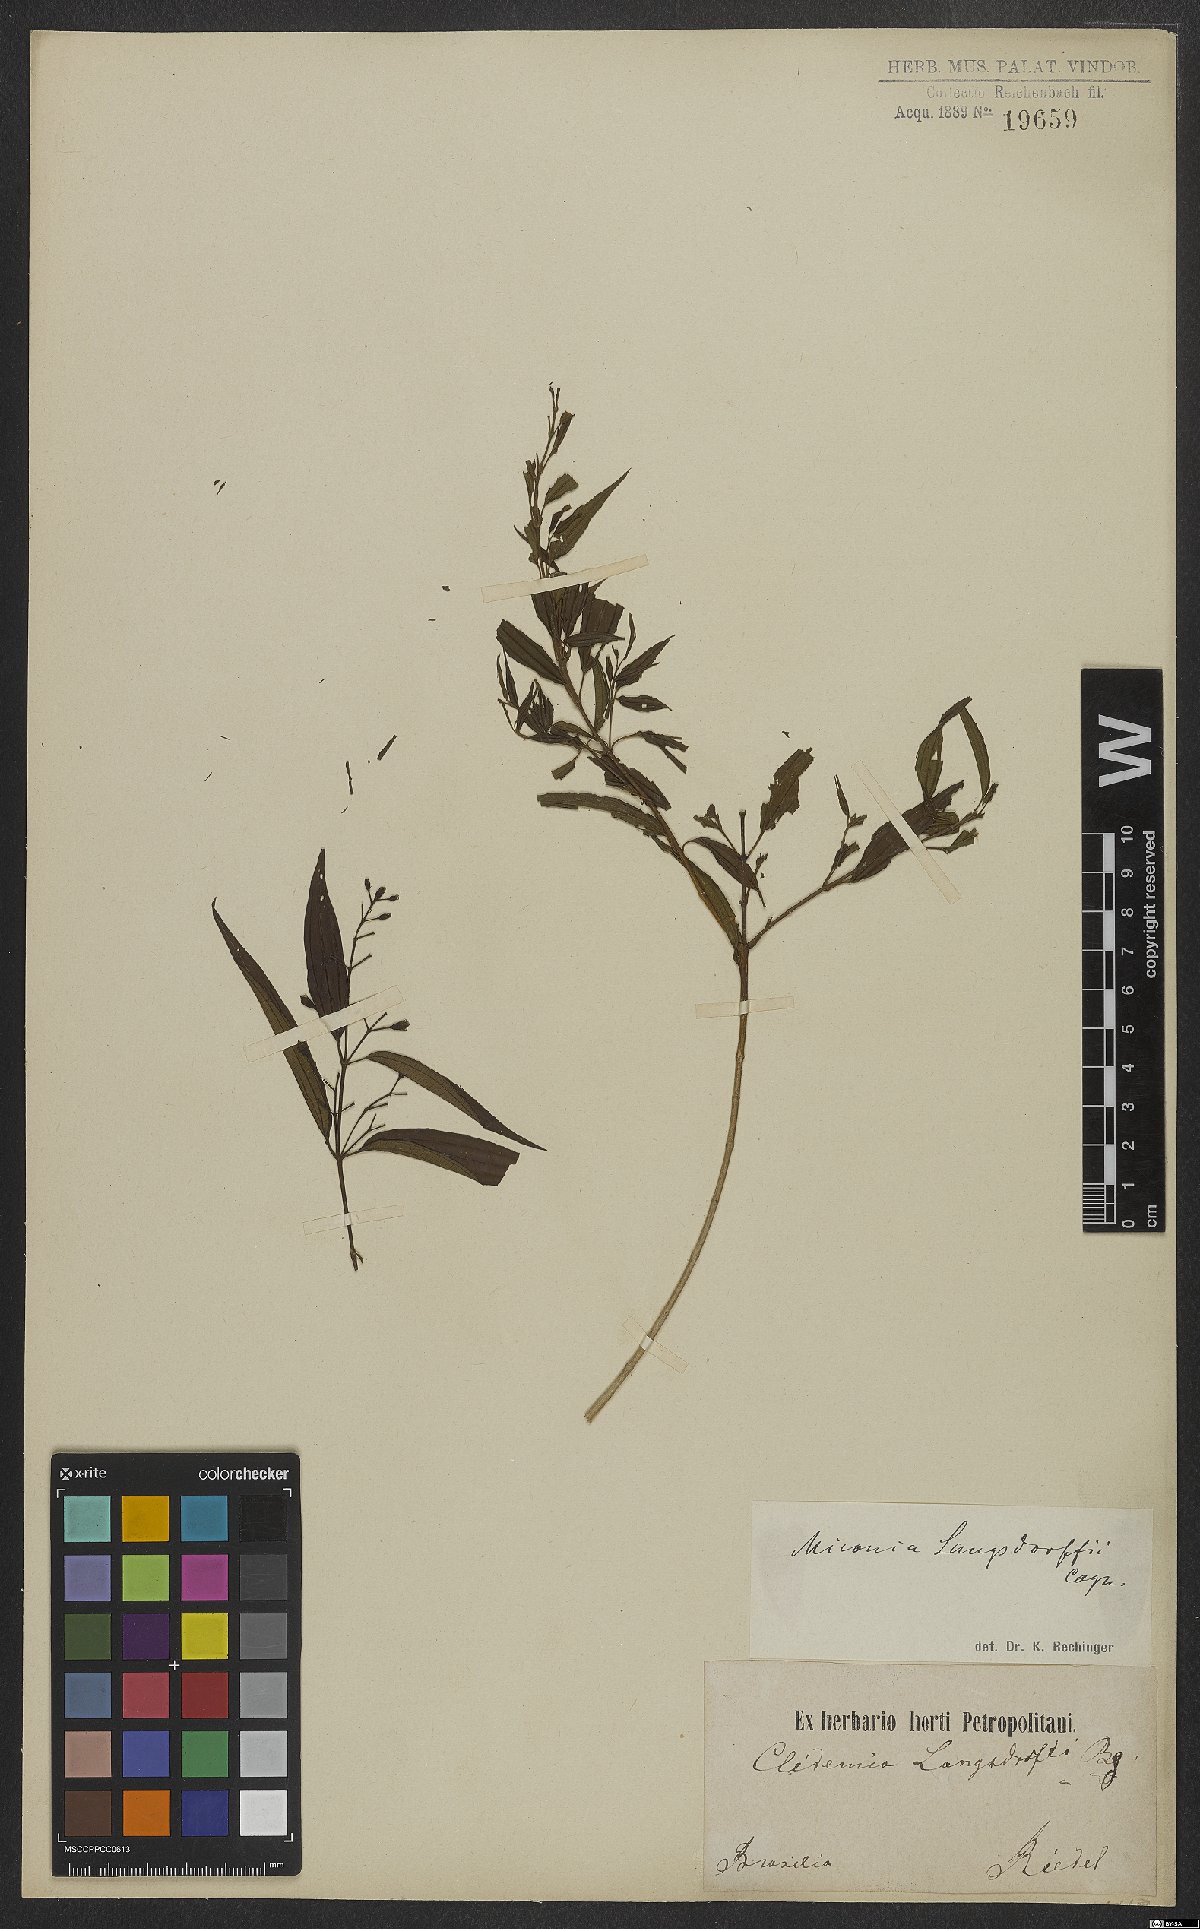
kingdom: Plantae
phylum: Tracheophyta
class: Magnoliopsida
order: Myrtales
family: Melastomataceae
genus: Miconia
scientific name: Miconia langsdorffii
